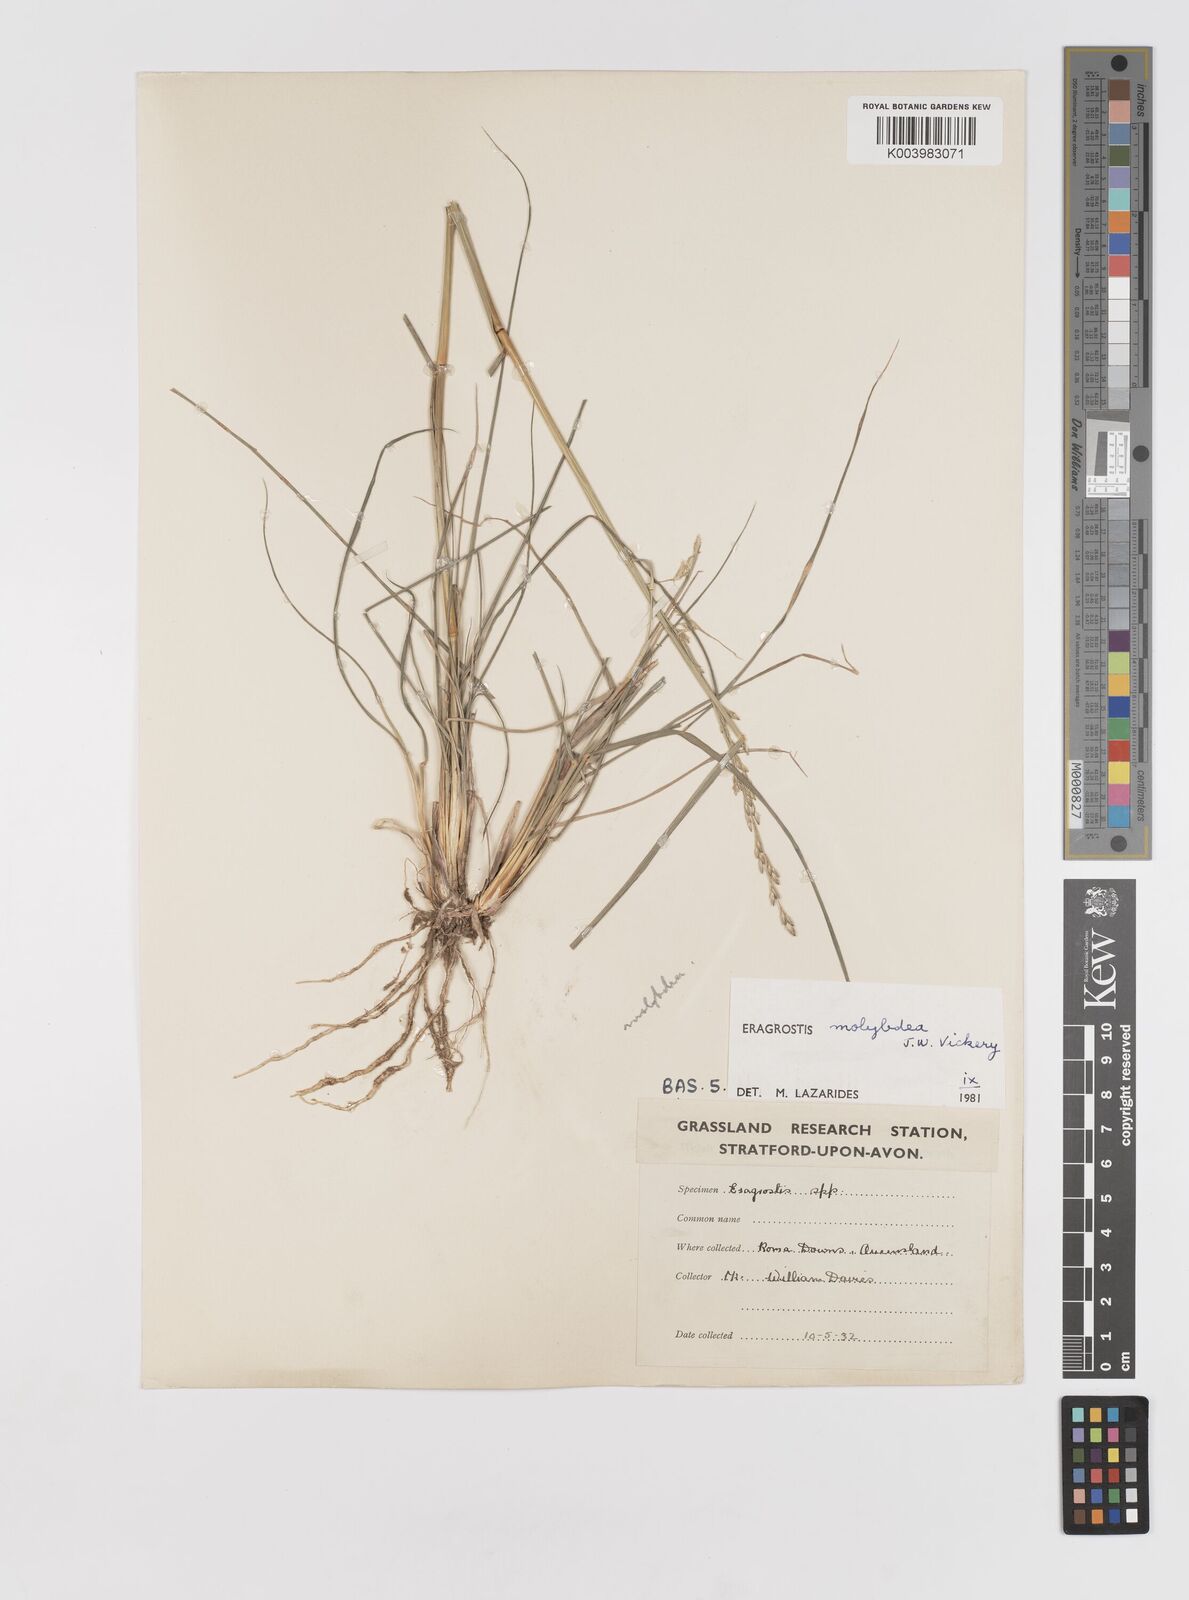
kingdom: Plantae
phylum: Tracheophyta
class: Liliopsida
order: Poales
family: Poaceae
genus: Eragrostis
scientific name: Eragrostis leptostachya
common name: Australian lovegrass
